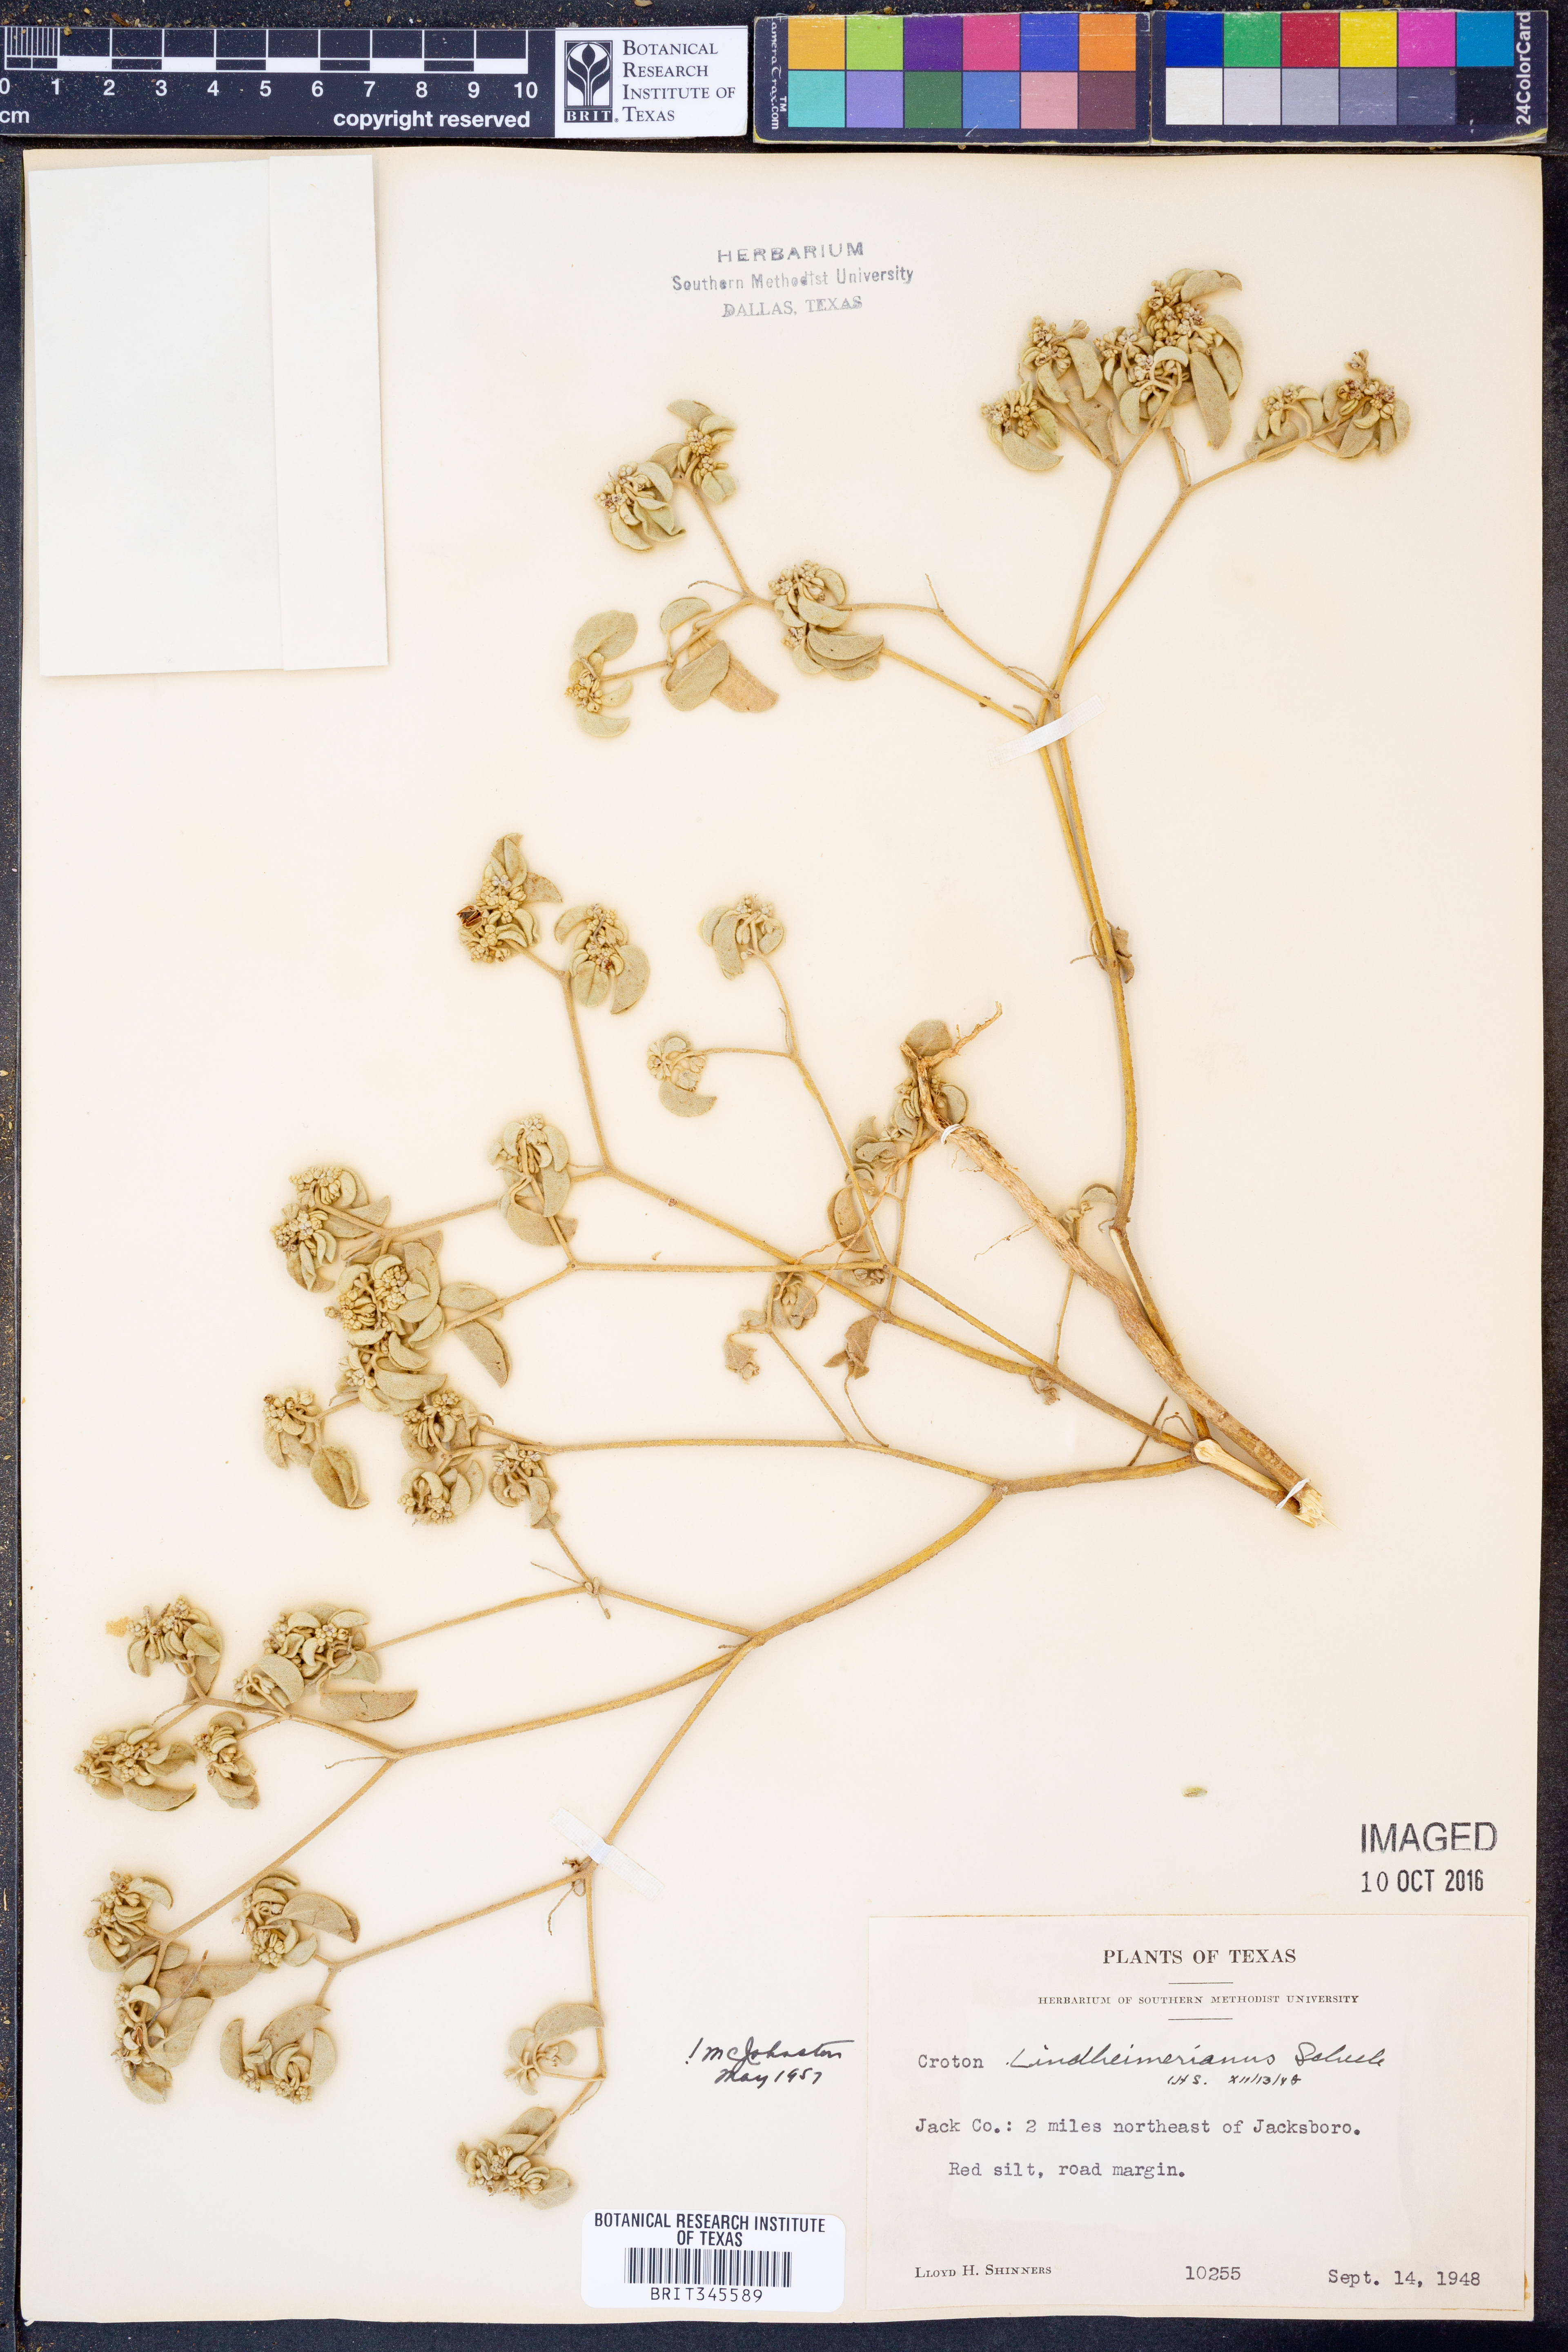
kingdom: Plantae
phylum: Tracheophyta
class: Magnoliopsida
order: Malpighiales
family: Euphorbiaceae
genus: Croton
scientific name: Croton lindheimerianus
